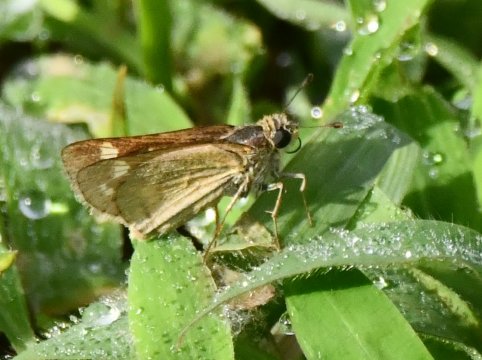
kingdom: Animalia
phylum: Arthropoda
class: Insecta
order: Lepidoptera
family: Hesperiidae
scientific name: Hesperiidae
